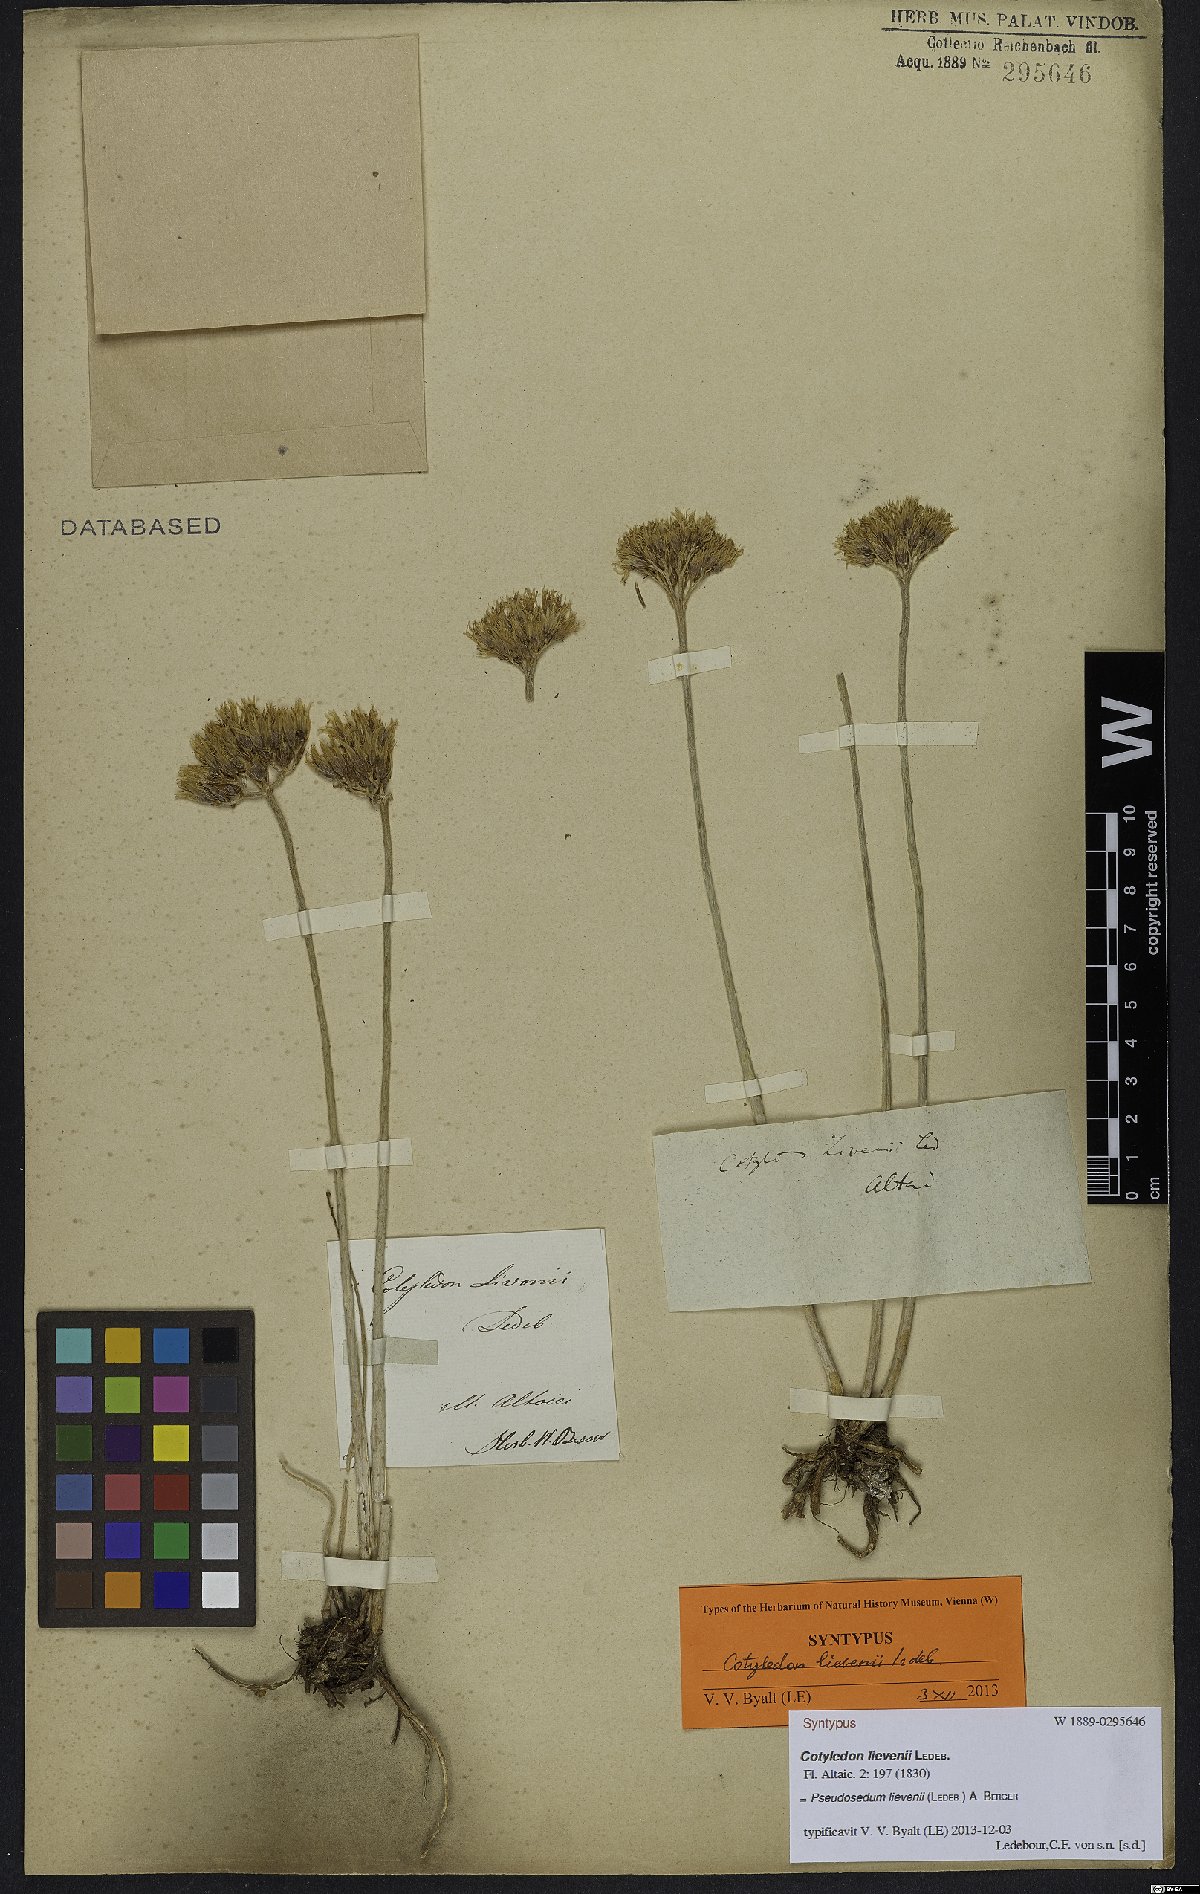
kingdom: Plantae
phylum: Tracheophyta
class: Magnoliopsida
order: Saxifragales
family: Crassulaceae
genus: Pseudosedum
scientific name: Pseudosedum lievenii
